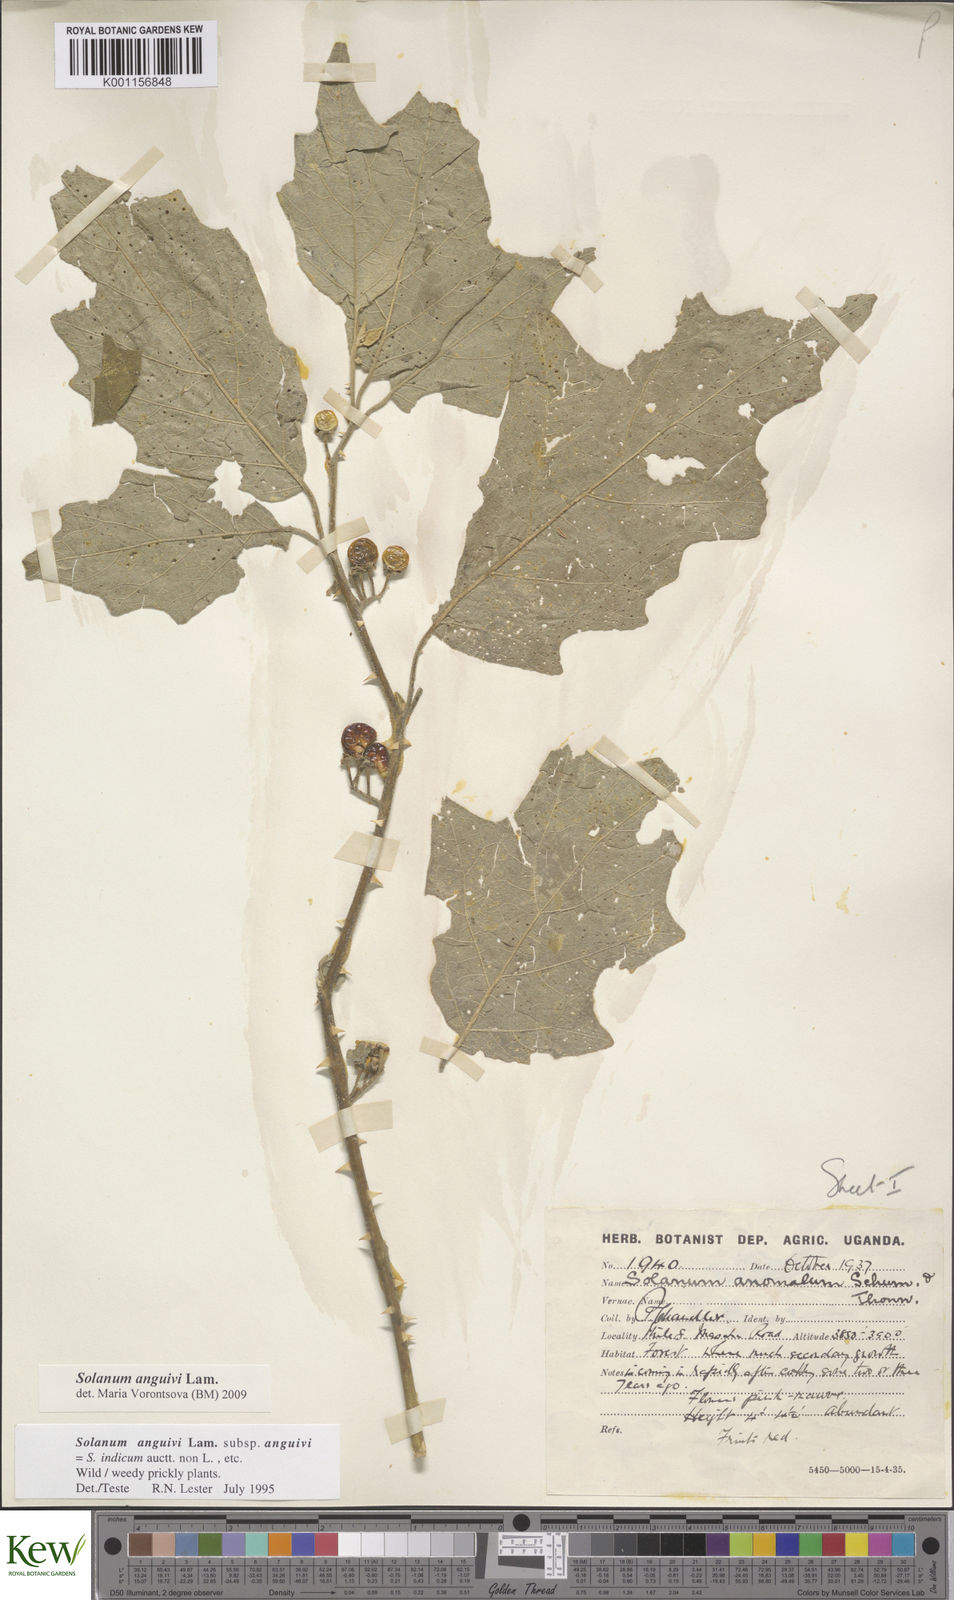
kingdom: Plantae
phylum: Tracheophyta
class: Magnoliopsida
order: Solanales
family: Solanaceae
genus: Solanum
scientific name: Solanum anguivi
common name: Forest bitterberry
